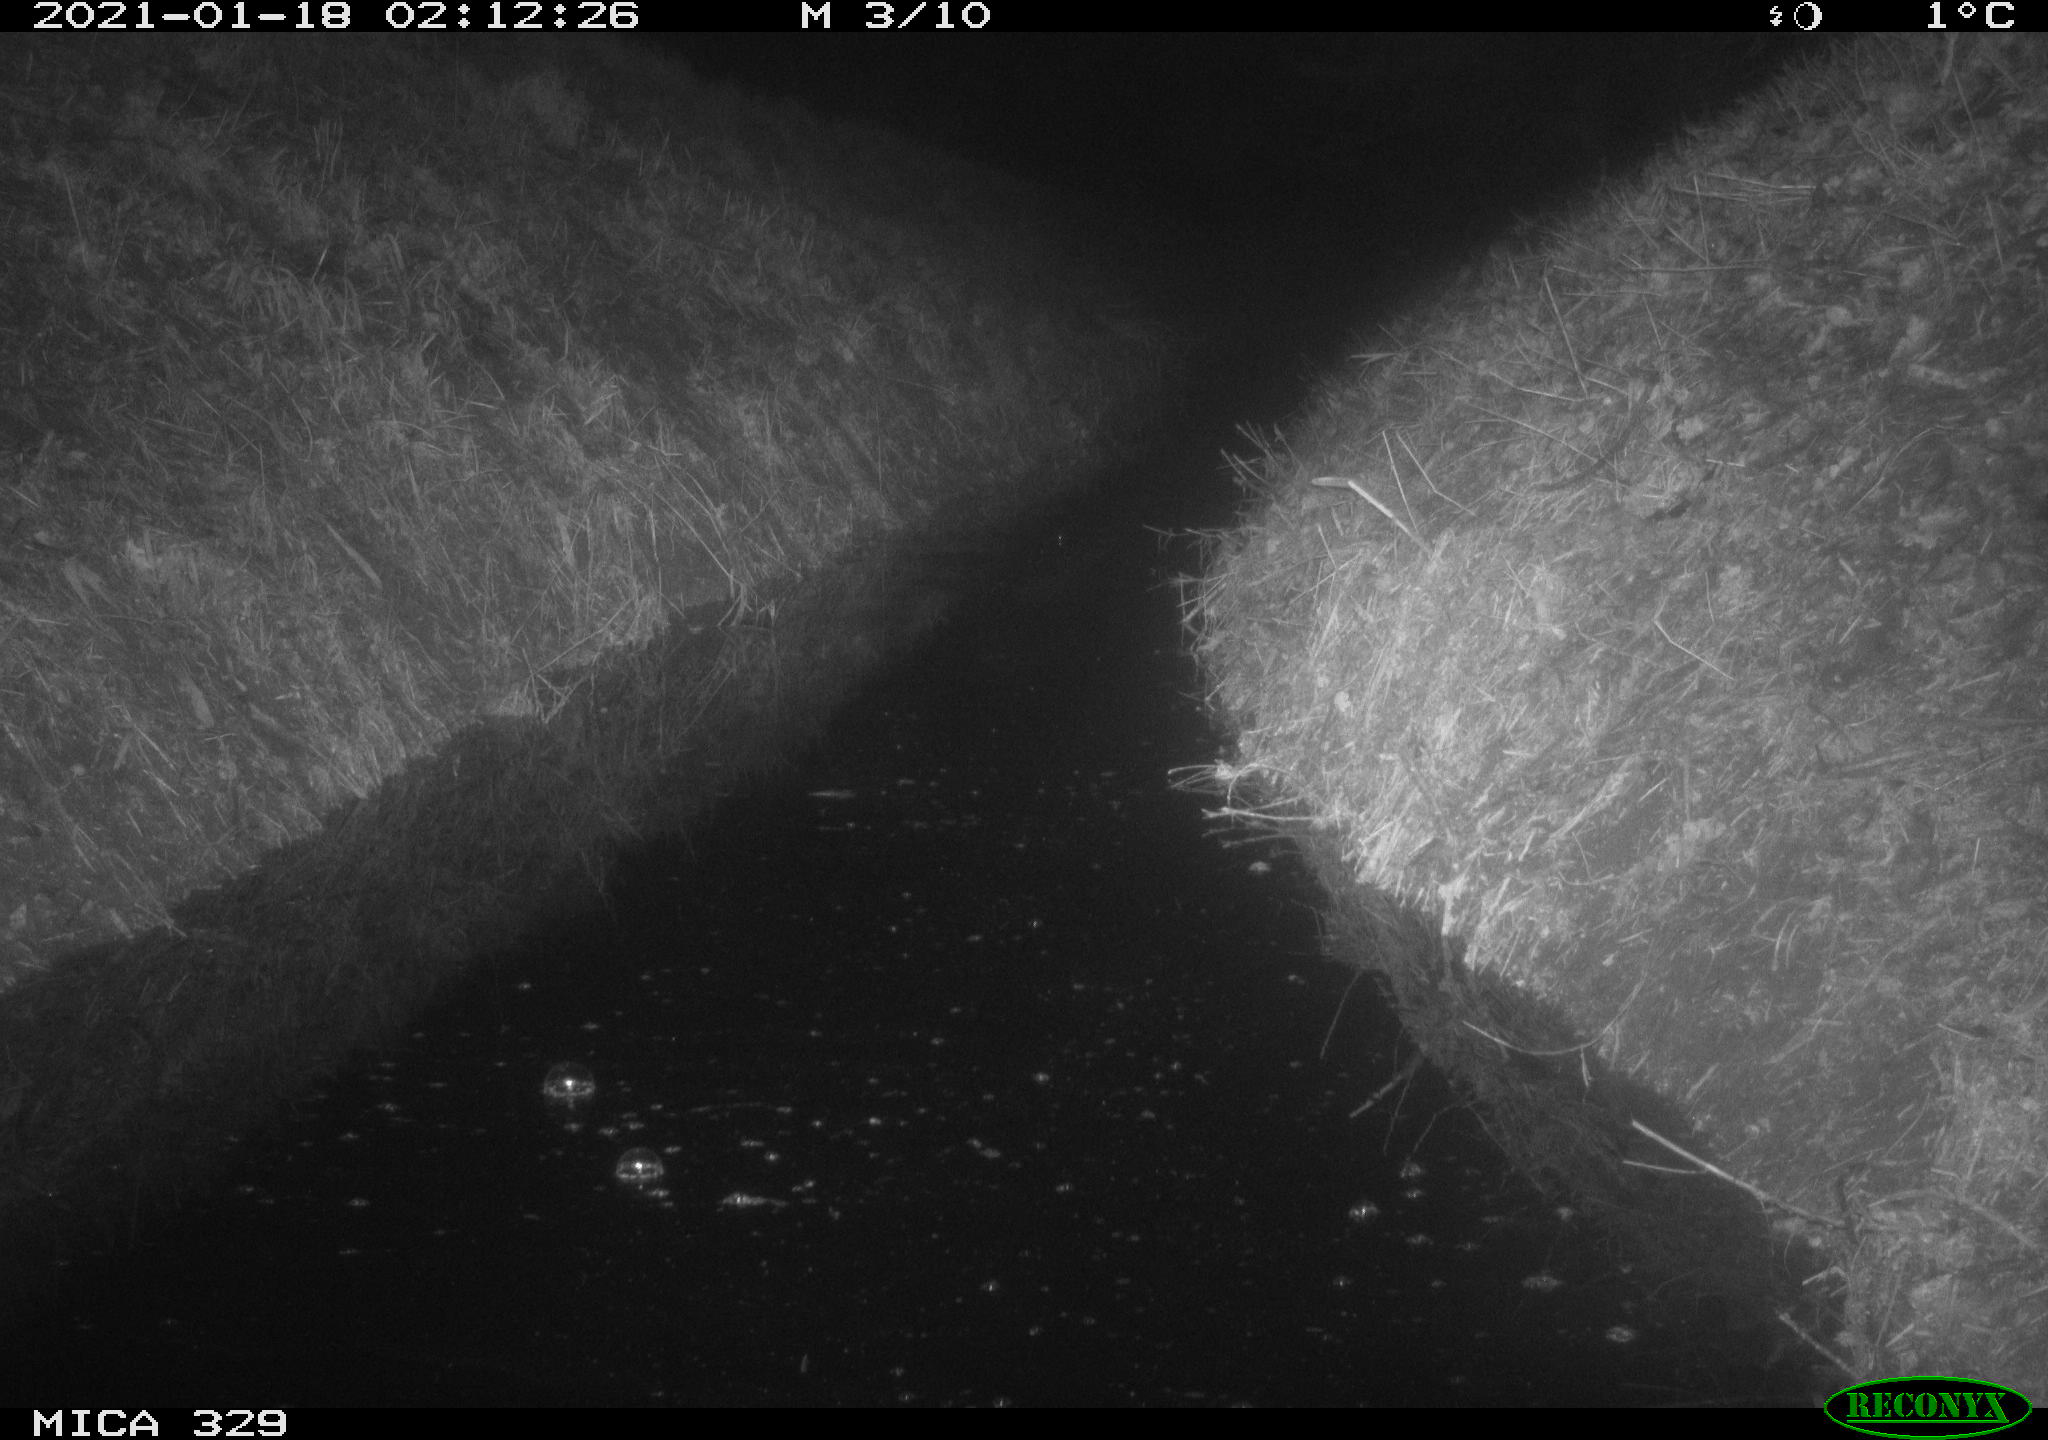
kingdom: Animalia
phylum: Chordata
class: Mammalia
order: Carnivora
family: Mustelidae
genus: Mustela
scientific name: Mustela erminea
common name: Stoat
